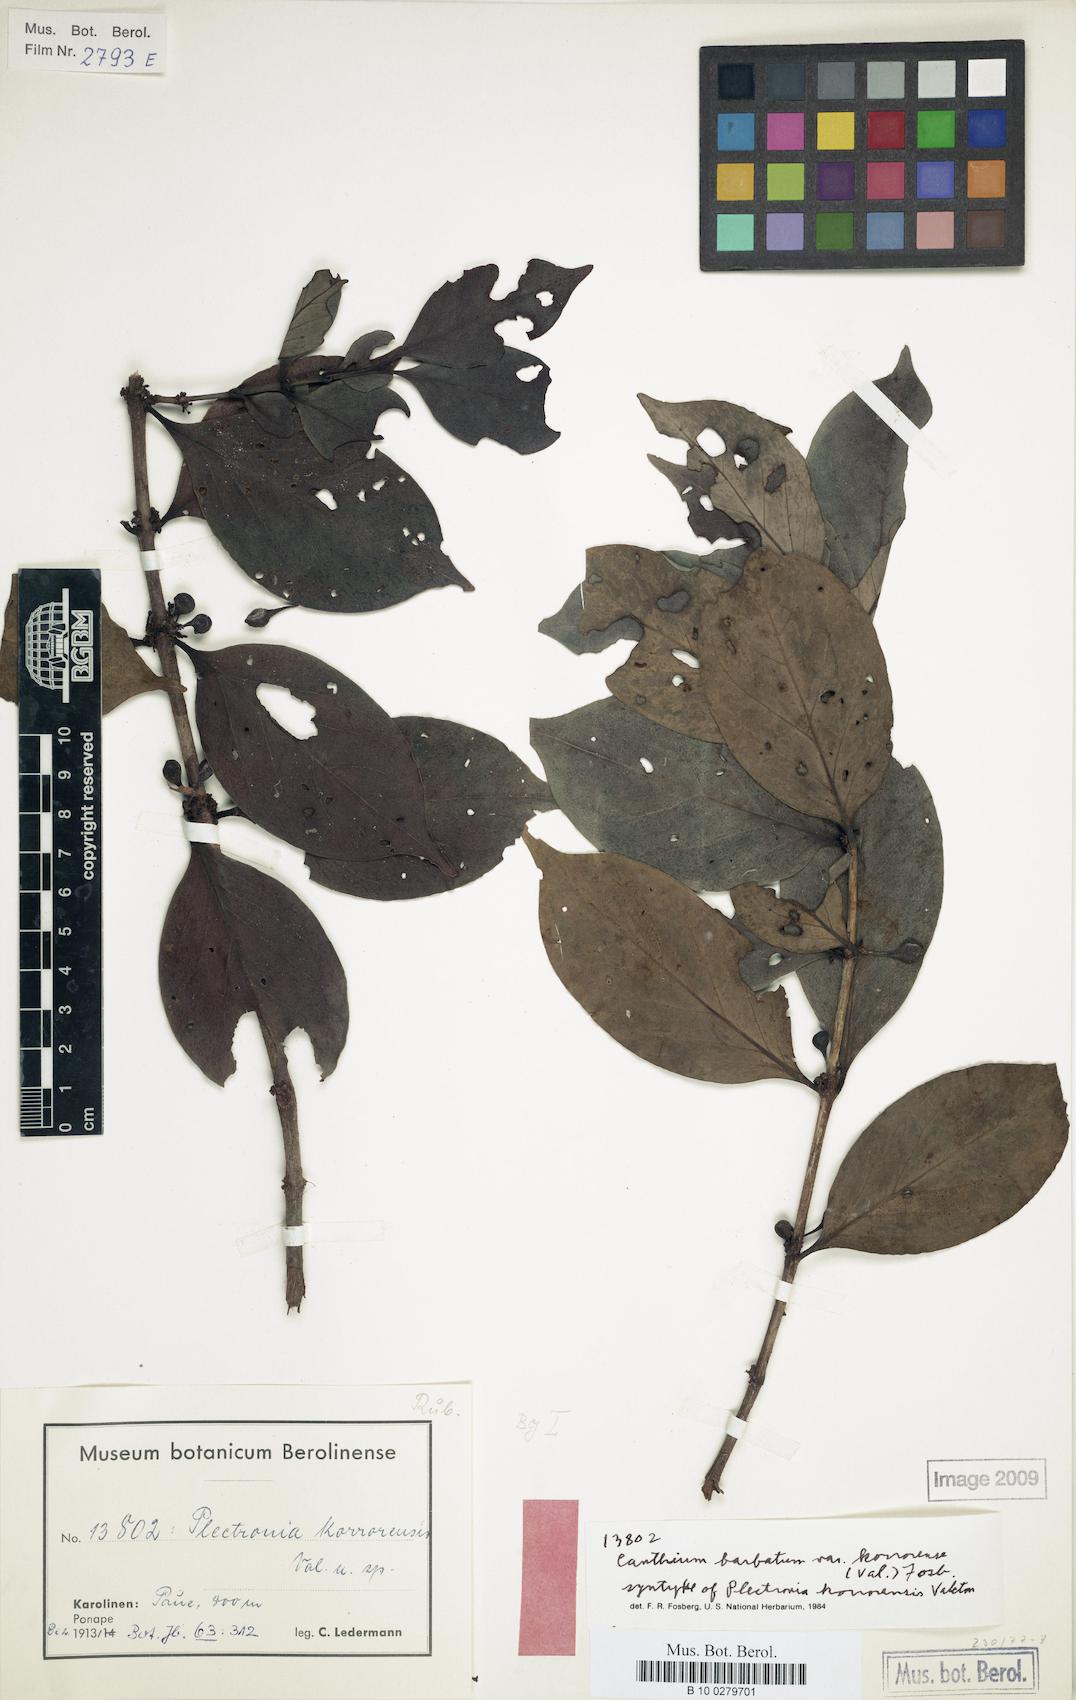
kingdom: Plantae
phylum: Tracheophyta
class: Magnoliopsida
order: Gentianales
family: Rubiaceae
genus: Cyclophyllum
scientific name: Cyclophyllum barbatum
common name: Cyclophyllum
